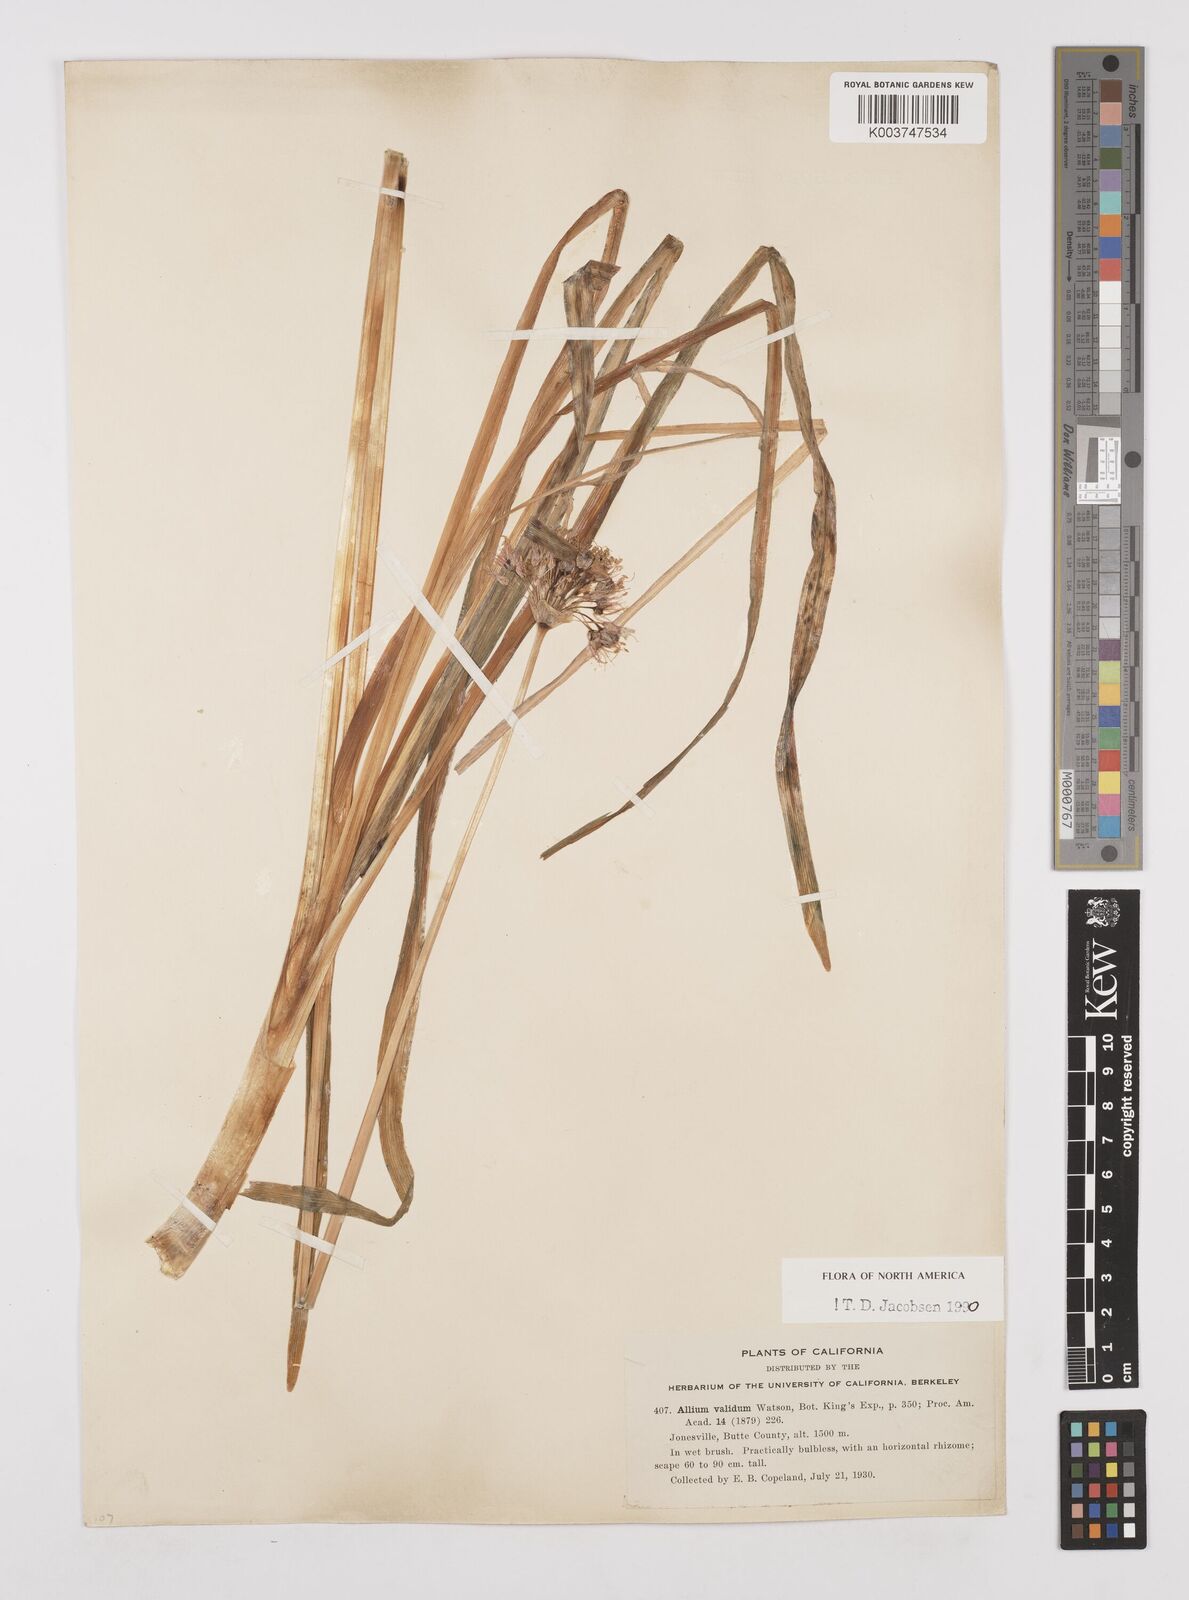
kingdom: Plantae
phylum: Tracheophyta
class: Liliopsida
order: Asparagales
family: Amaryllidaceae
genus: Allium
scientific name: Allium validum
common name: Pacific mountain onion
